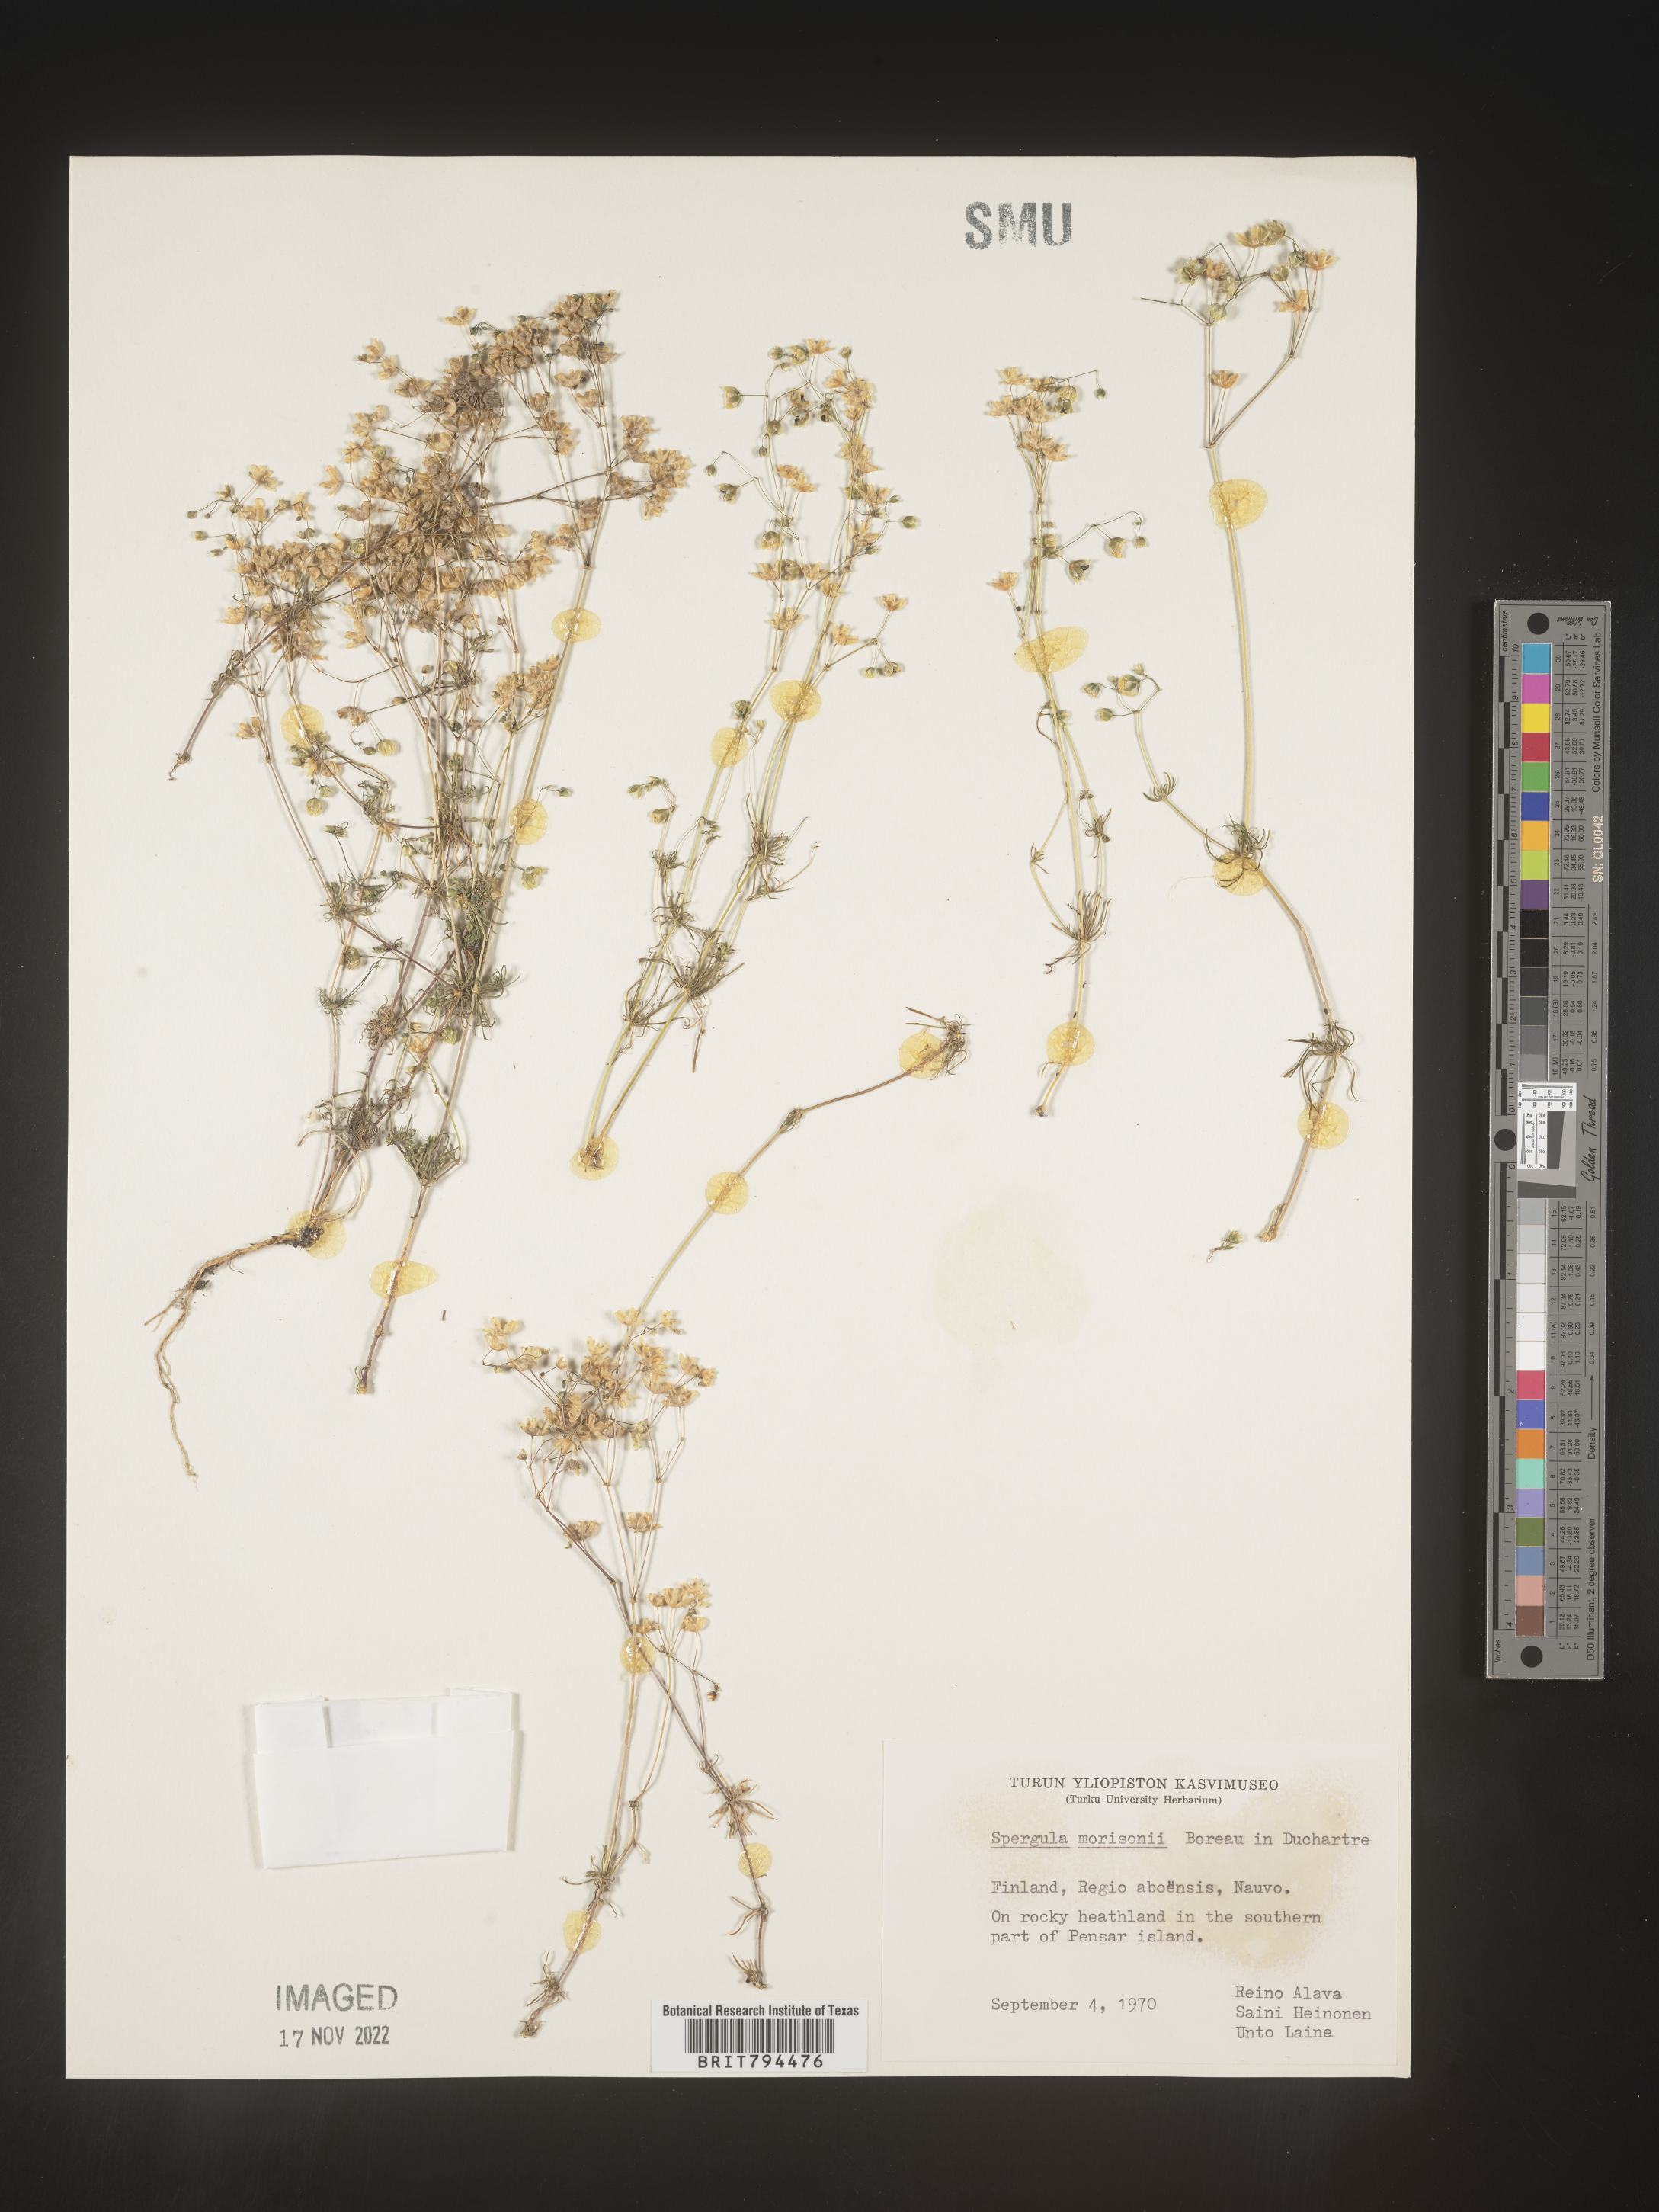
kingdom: Plantae
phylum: Tracheophyta
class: Magnoliopsida
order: Caryophyllales
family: Caryophyllaceae
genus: Spergula
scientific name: Spergula morisonii
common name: Pearlwort spurrey
